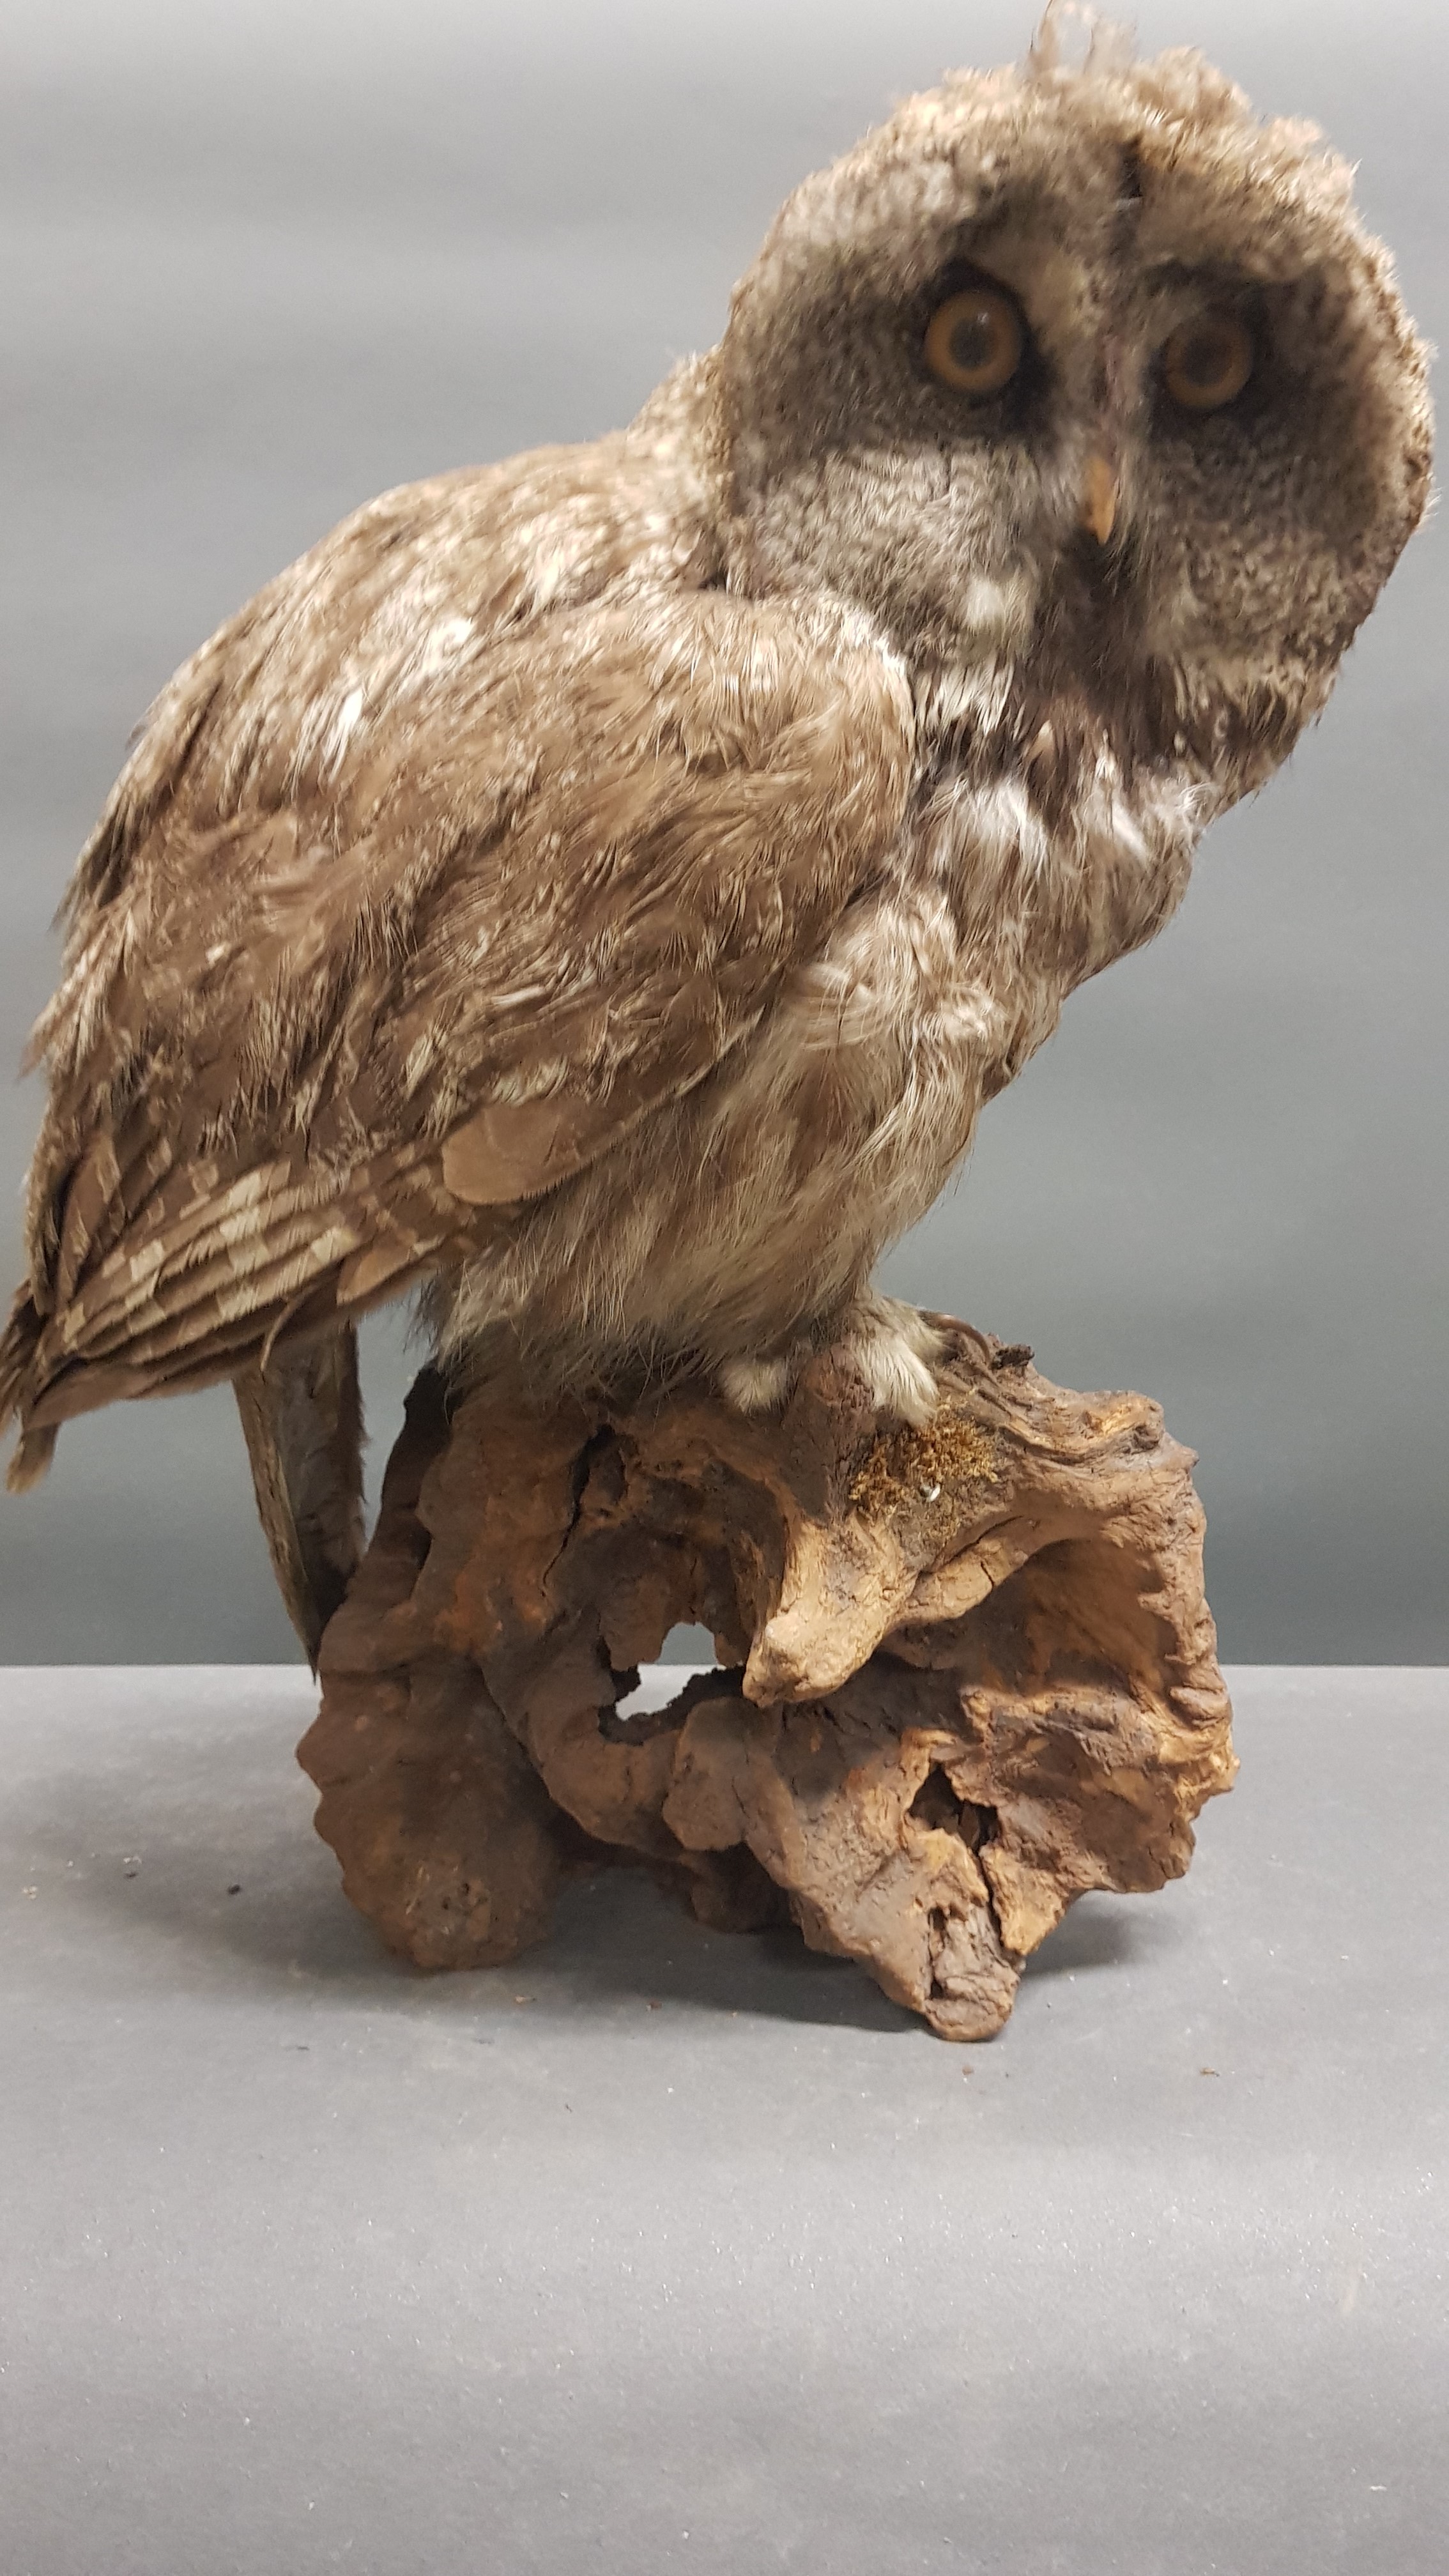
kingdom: Animalia
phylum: Chordata
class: Aves
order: Strigiformes
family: Strigidae
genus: Strix
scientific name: Strix nebulosa
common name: Great grey owl
